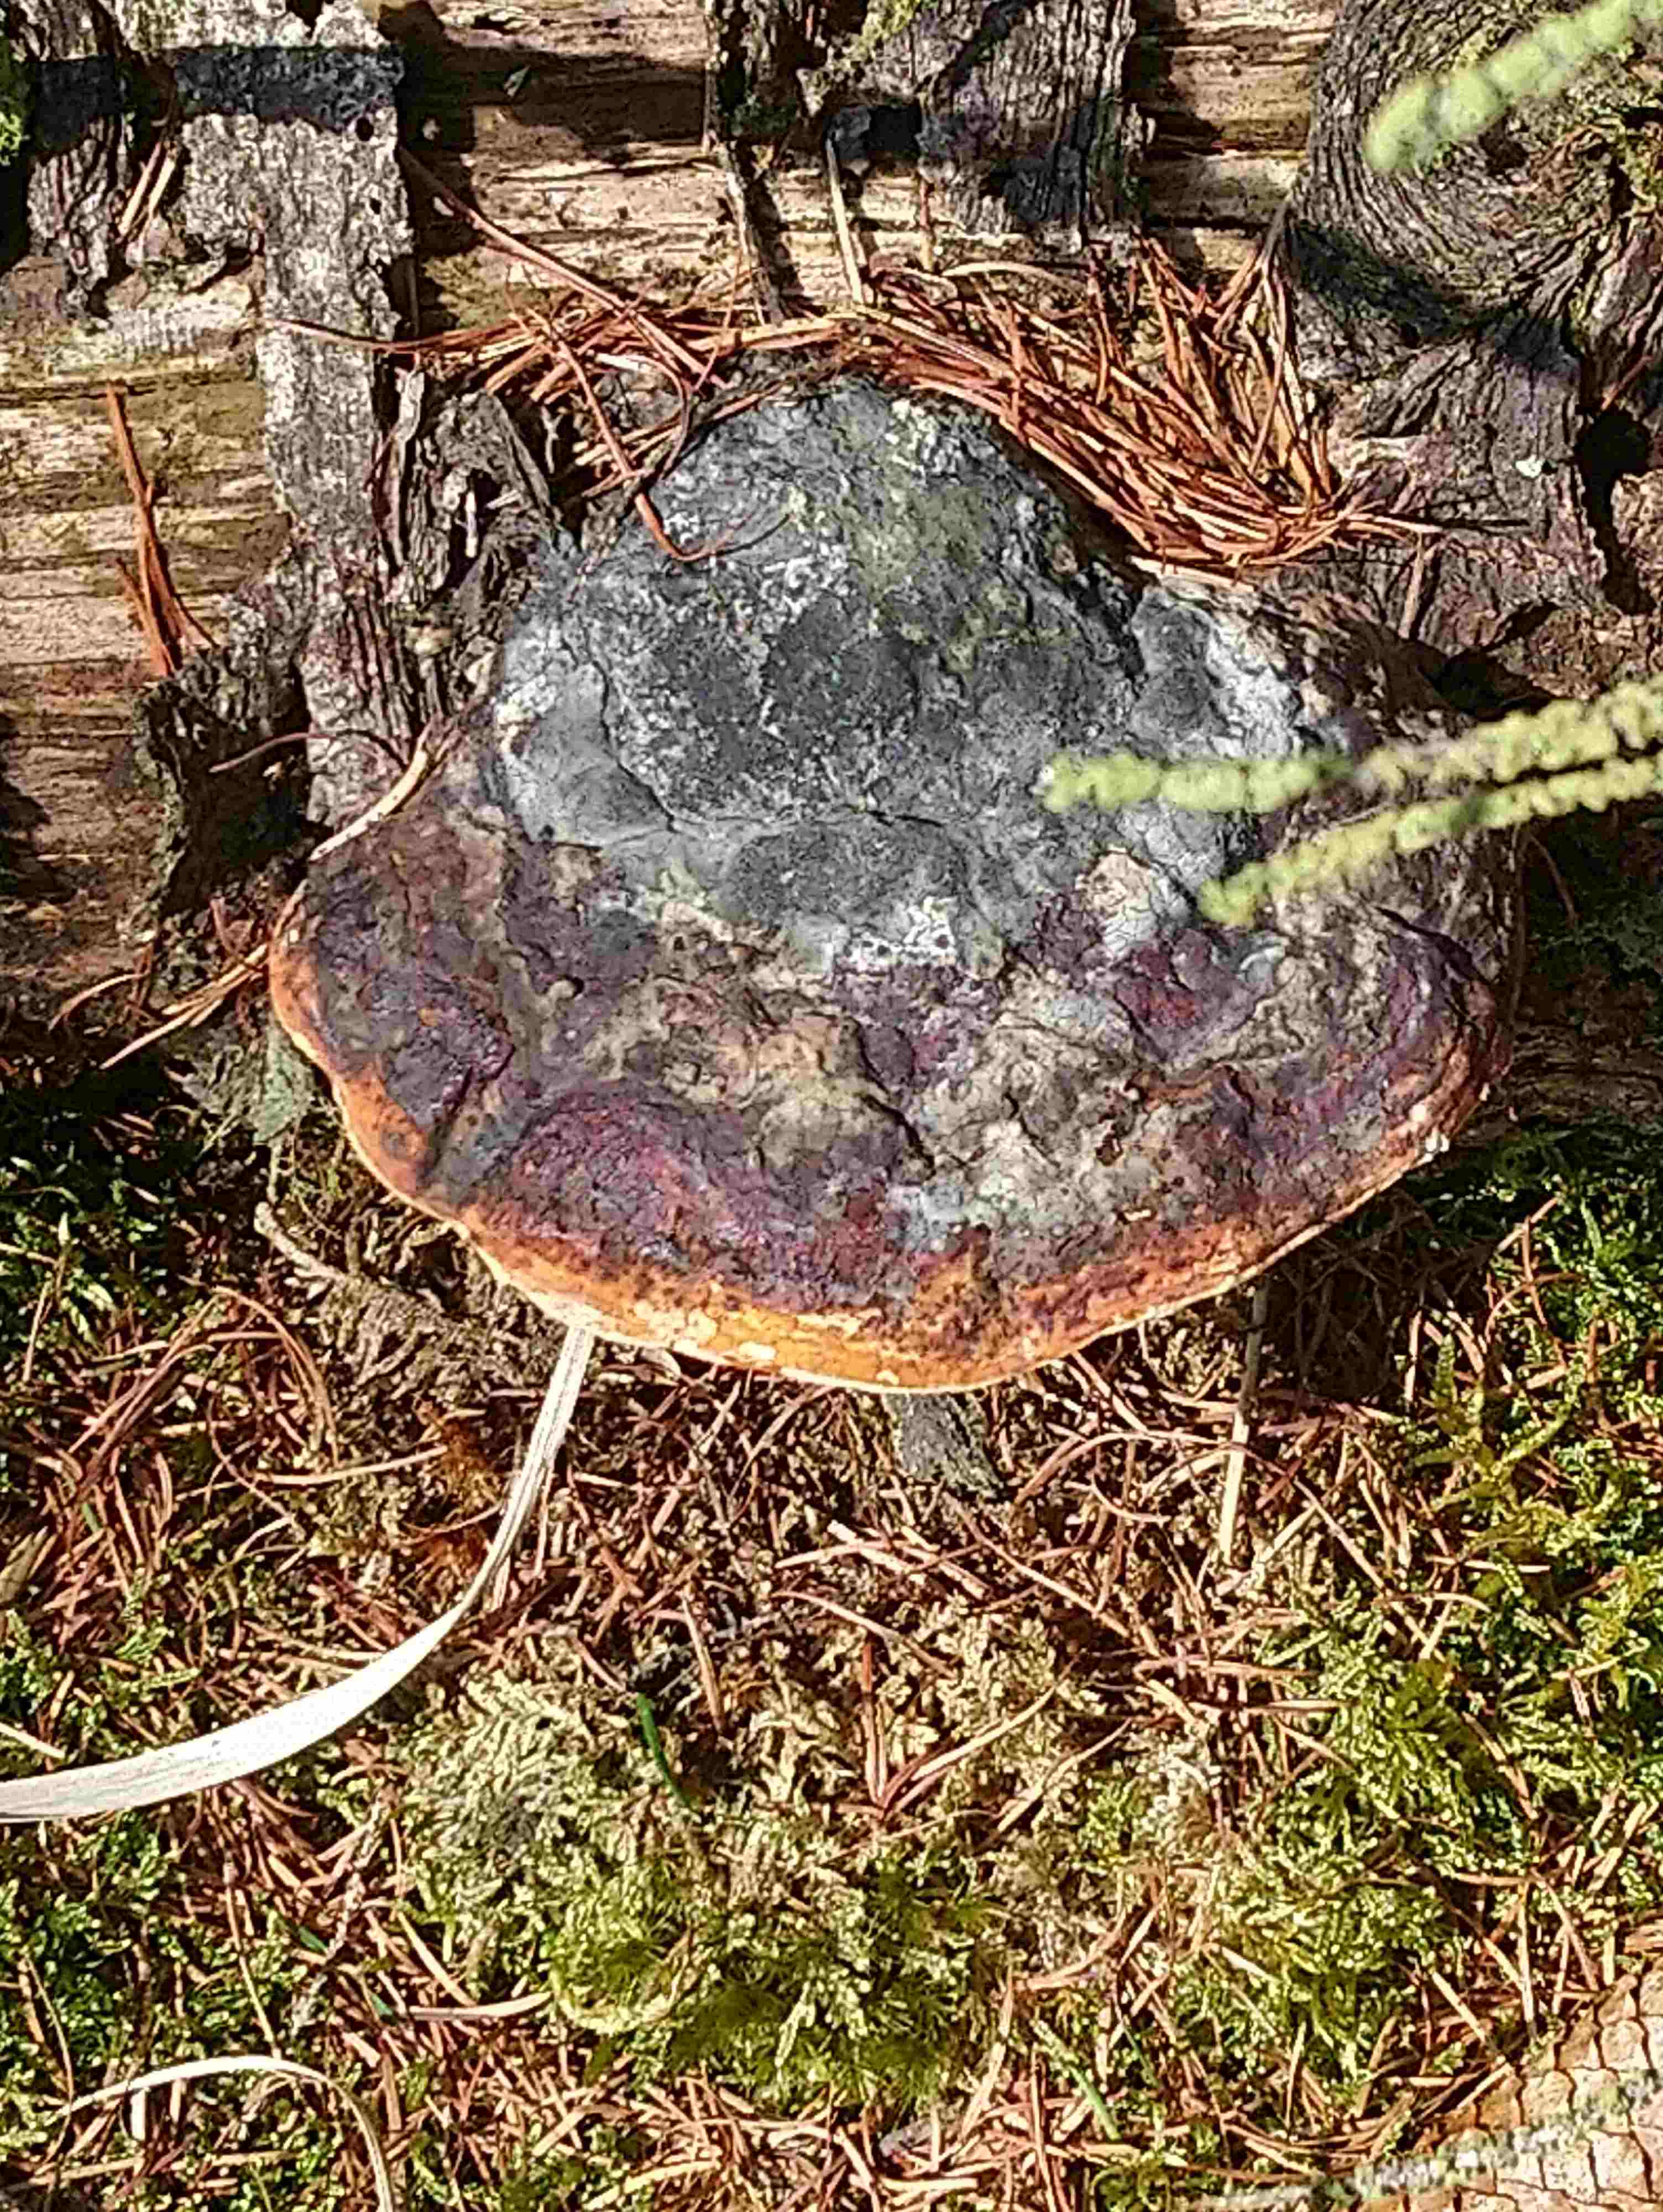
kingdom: Fungi
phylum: Basidiomycota
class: Agaricomycetes
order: Polyporales
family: Fomitopsidaceae
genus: Fomitopsis
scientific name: Fomitopsis pinicola
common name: randbæltet hovporesvamp
